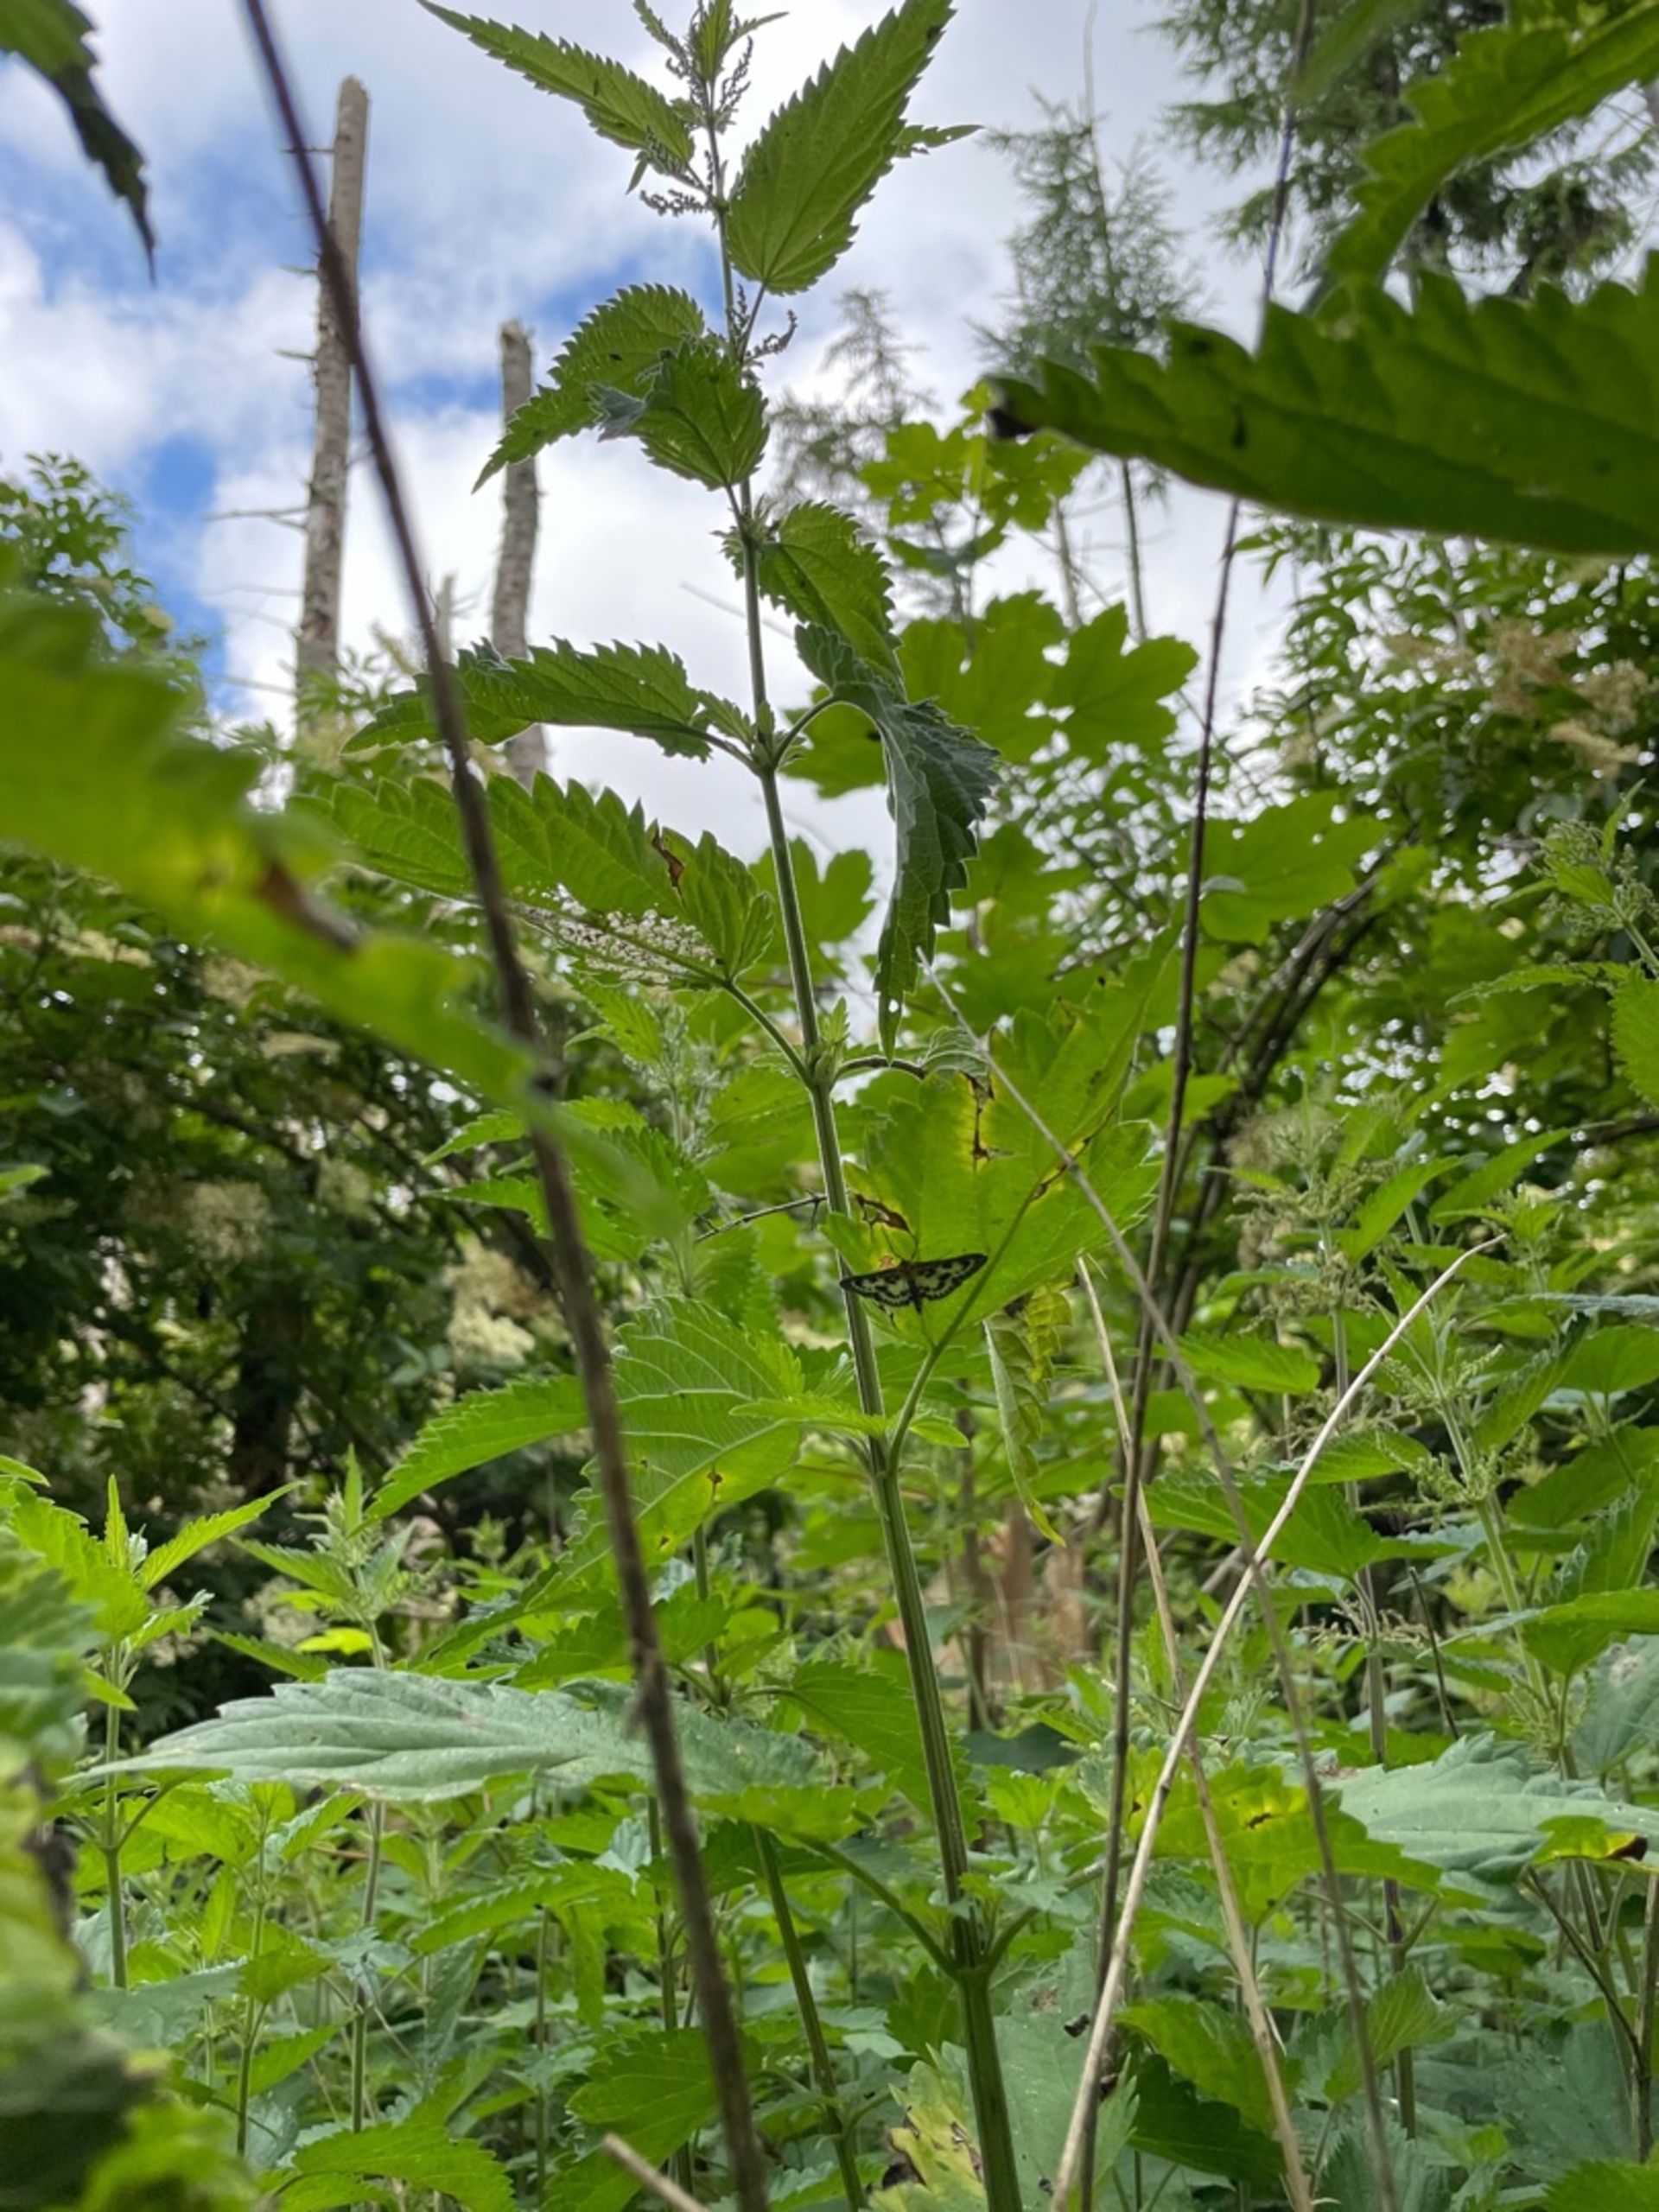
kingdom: Animalia
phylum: Arthropoda
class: Insecta
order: Lepidoptera
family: Crambidae
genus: Anania
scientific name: Anania hortulata
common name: Nældehalvmøl
